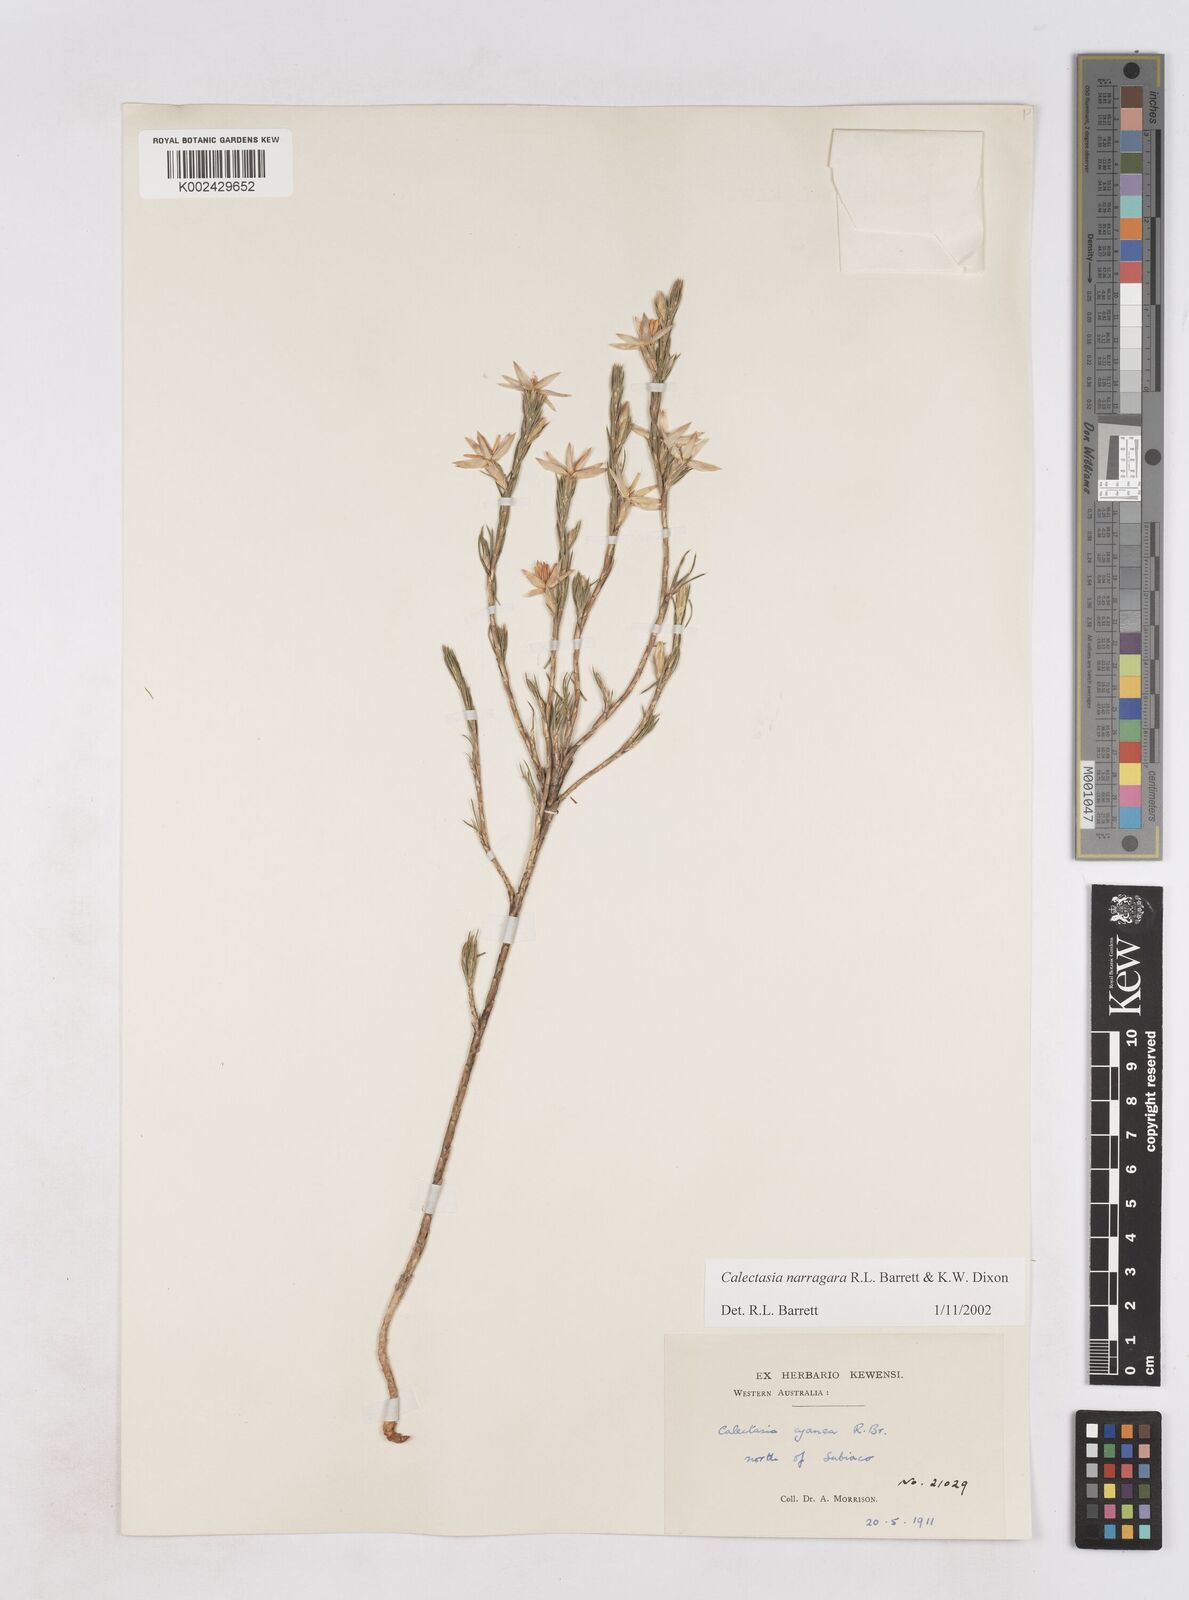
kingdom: Plantae
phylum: Tracheophyta
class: Liliopsida
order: Arecales
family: Dasypogonaceae
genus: Calectasia
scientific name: Calectasia narragara
